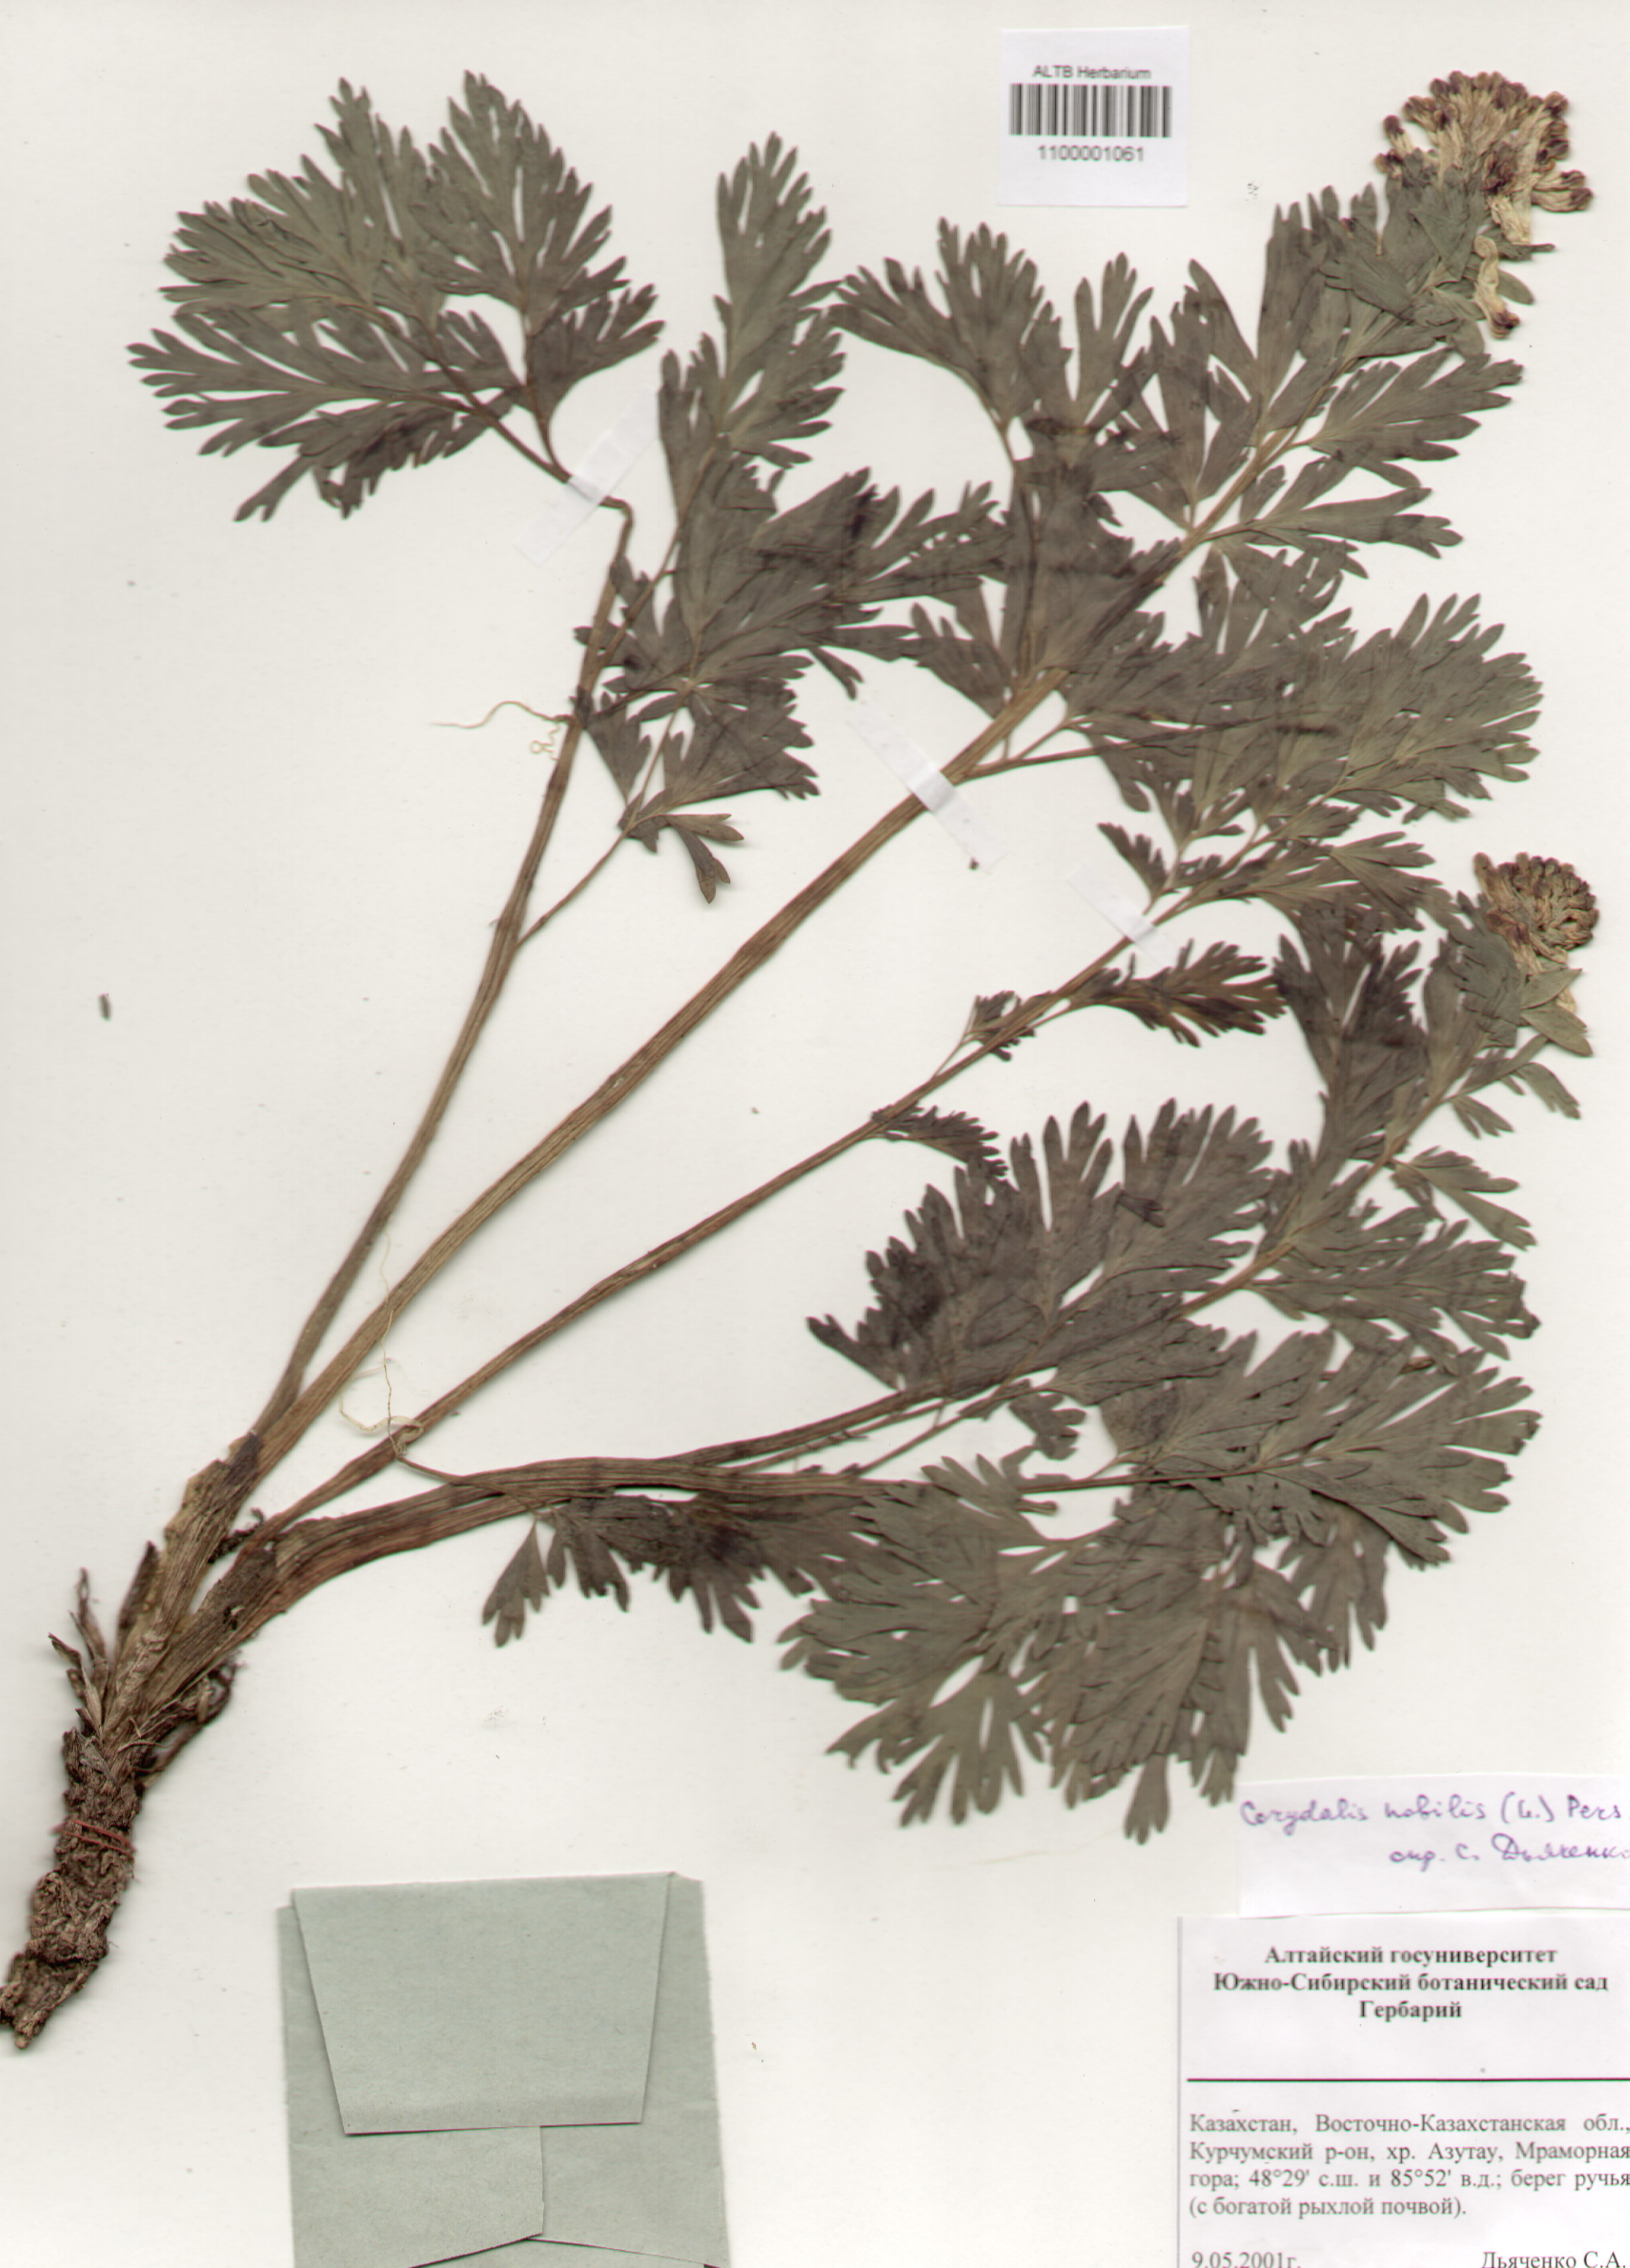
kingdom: Plantae
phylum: Tracheophyta
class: Magnoliopsida
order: Ranunculales
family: Papaveraceae
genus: Corydalis
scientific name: Corydalis nobilis
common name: Siberian corydalis
